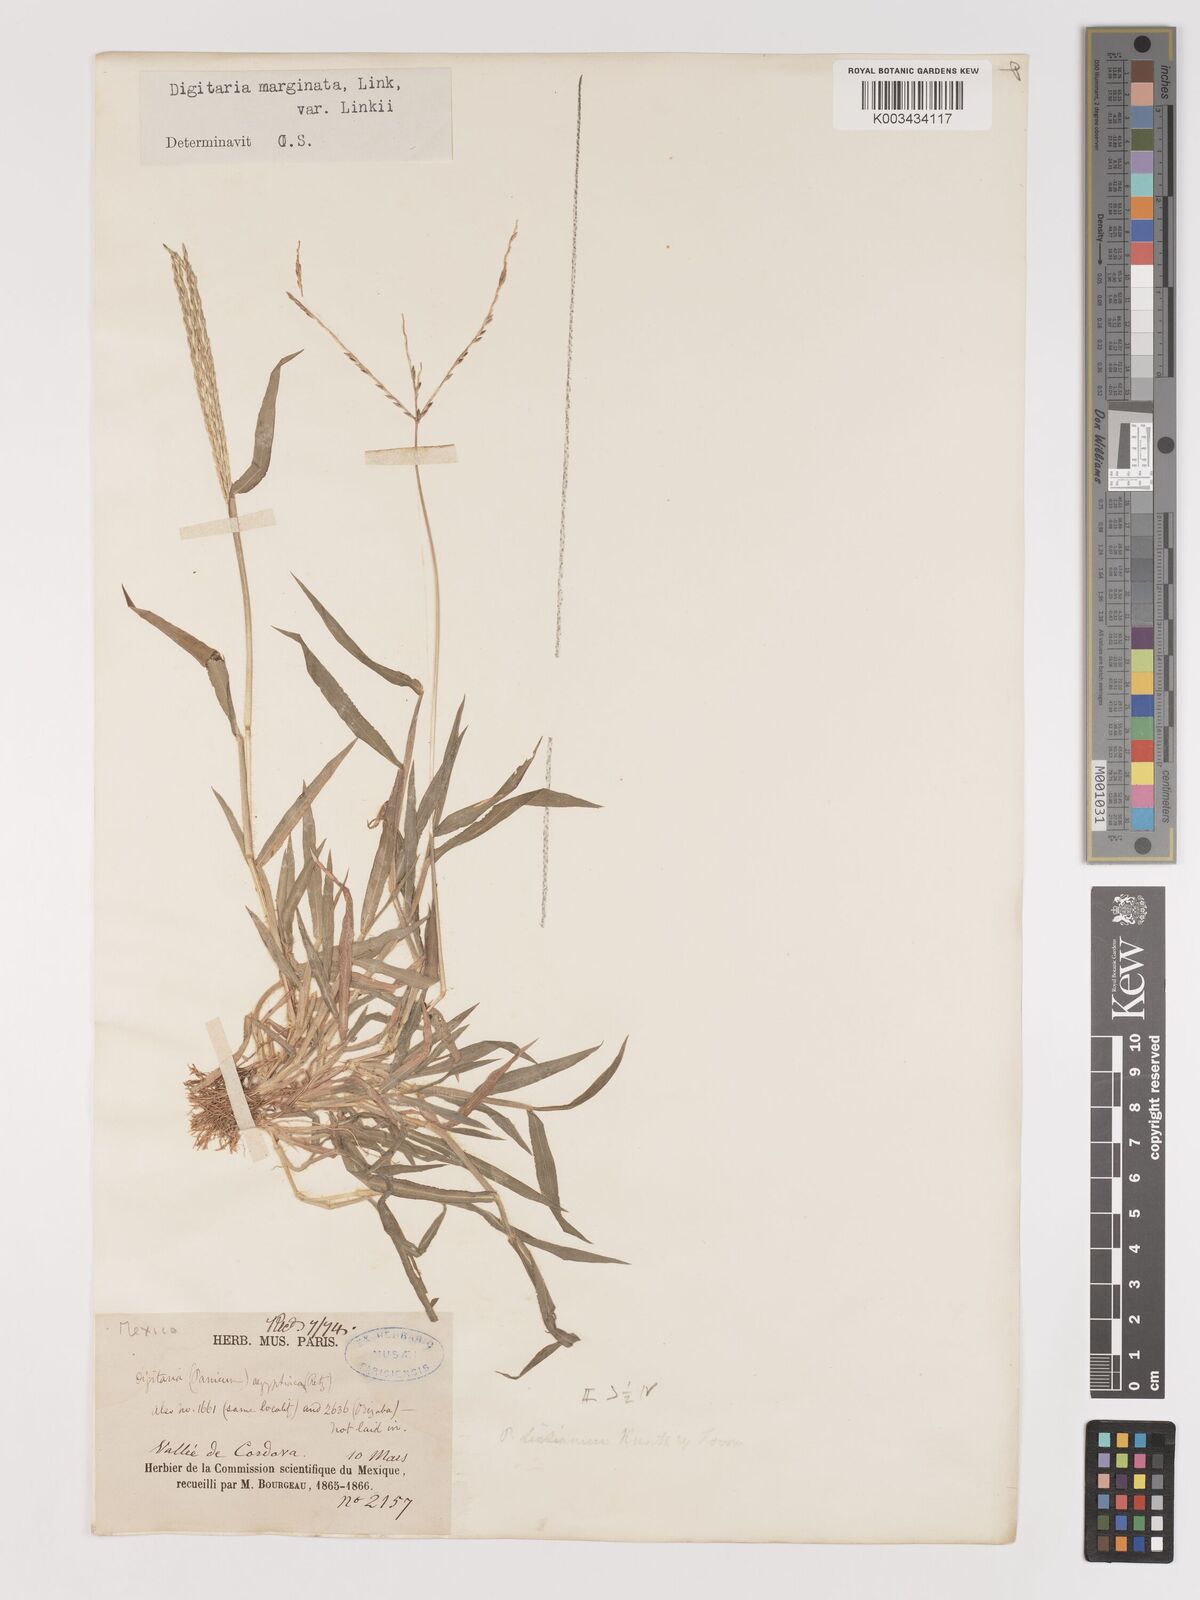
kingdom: Plantae
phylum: Tracheophyta
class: Liliopsida
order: Poales
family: Poaceae
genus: Digitaria
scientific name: Digitaria ciliaris
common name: Tropical finger-grass
